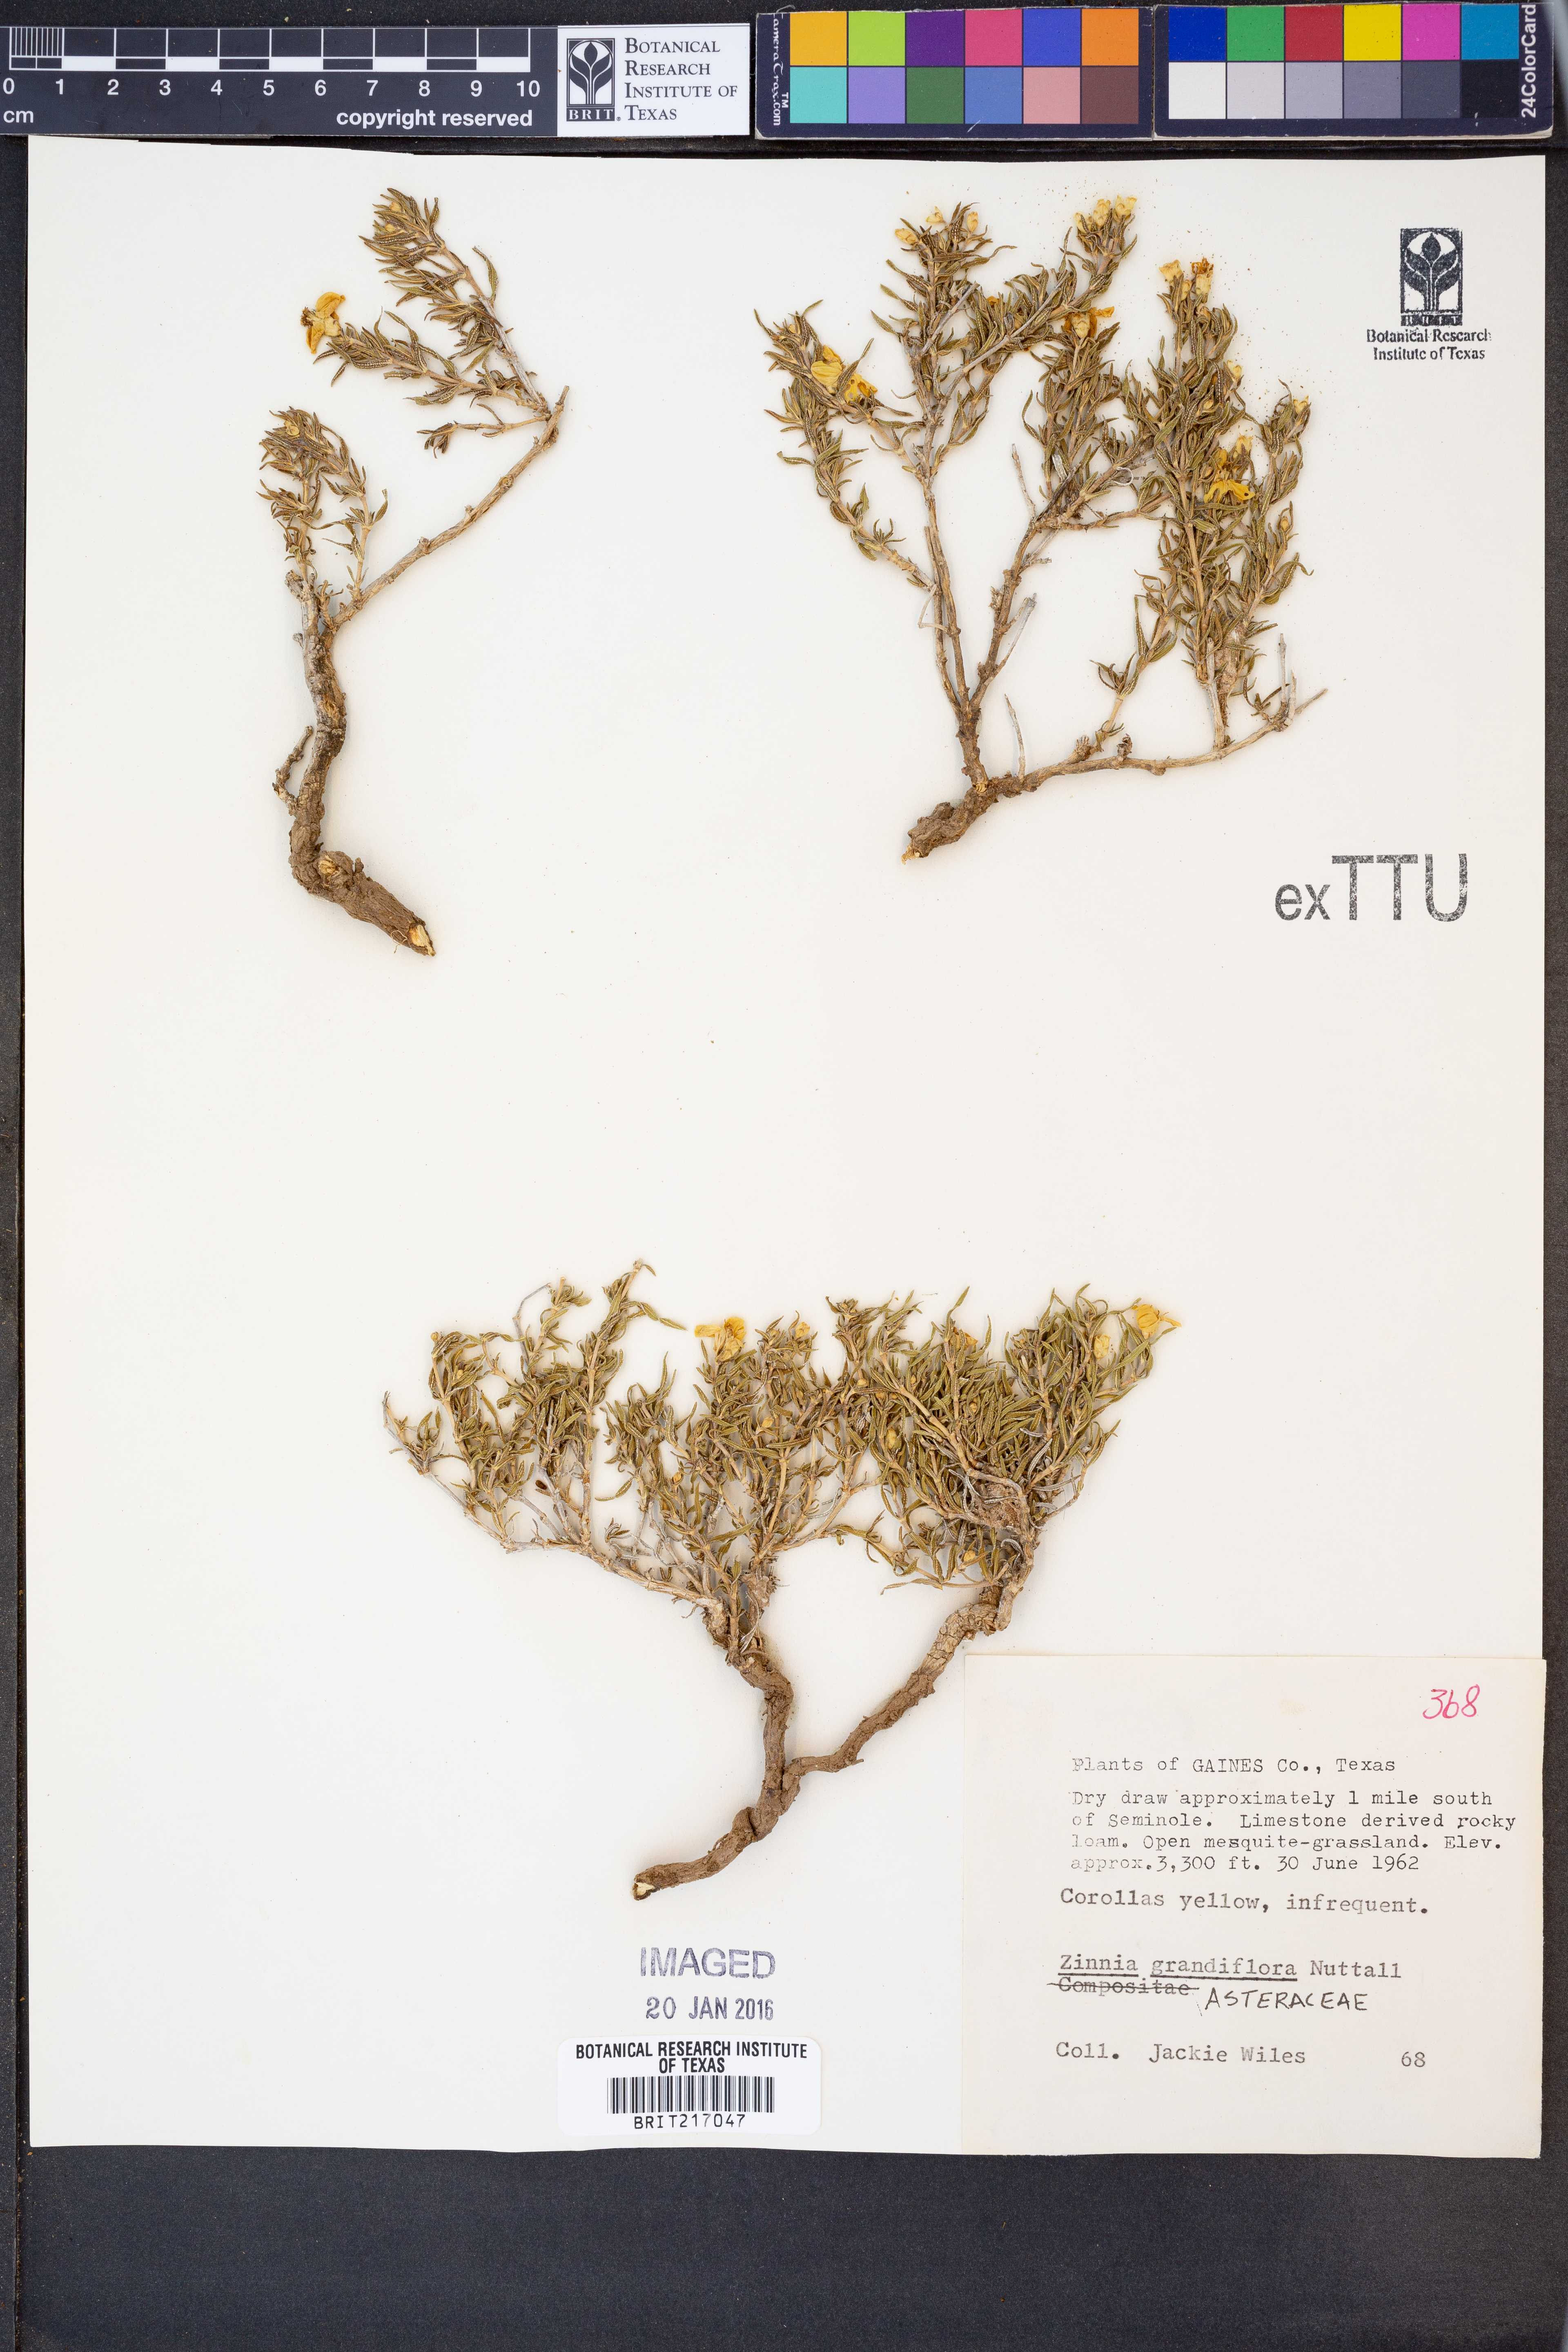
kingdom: Plantae
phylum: Tracheophyta
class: Magnoliopsida
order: Asterales
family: Asteraceae
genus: Zinnia
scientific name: Zinnia grandiflora
